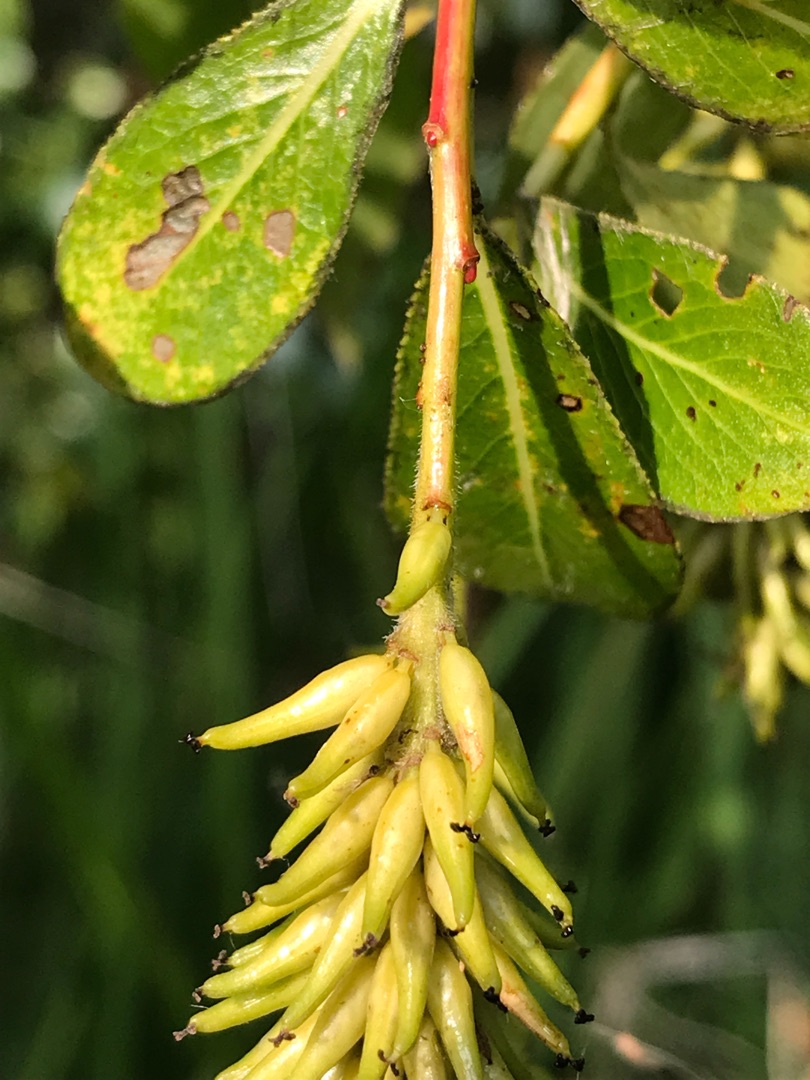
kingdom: Plantae
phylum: Tracheophyta
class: Magnoliopsida
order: Malpighiales
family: Salicaceae
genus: Salix
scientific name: Salix pentandra
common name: Femhannet pil
